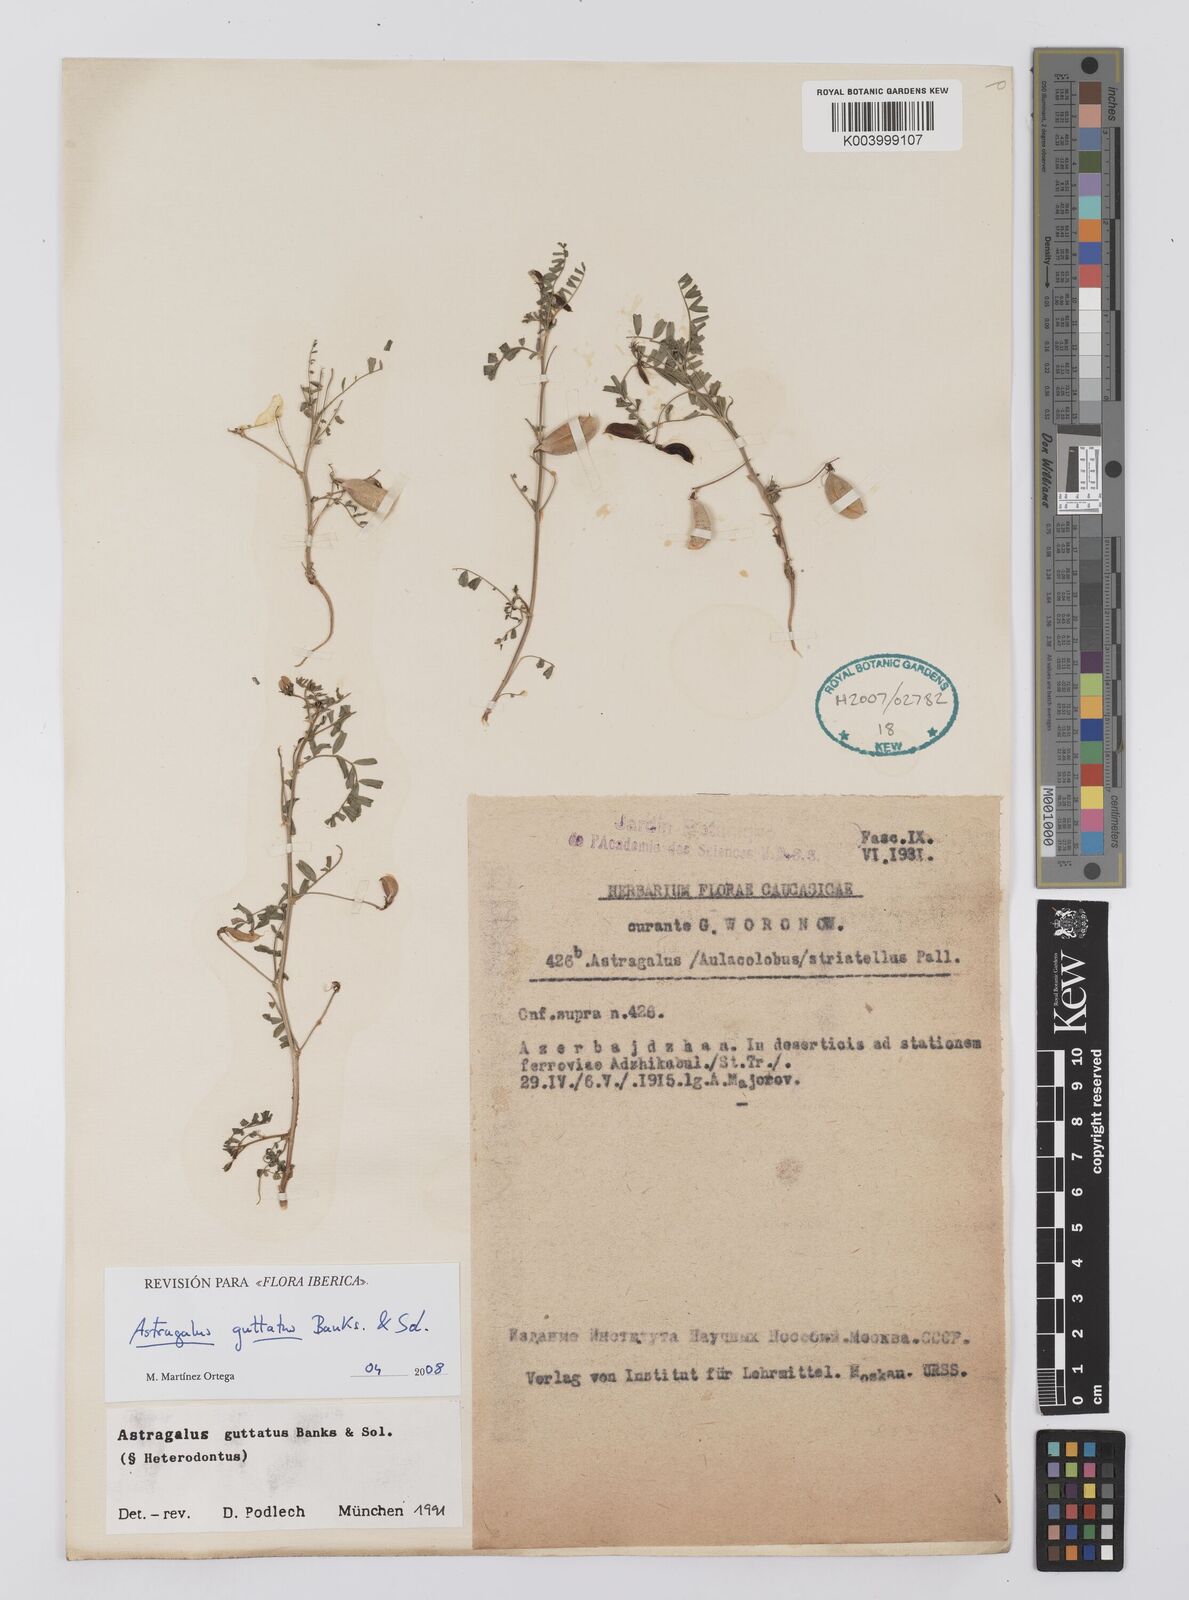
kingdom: Plantae
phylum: Tracheophyta
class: Magnoliopsida
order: Fabales
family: Fabaceae
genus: Astragalus
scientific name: Astragalus heterodontus
